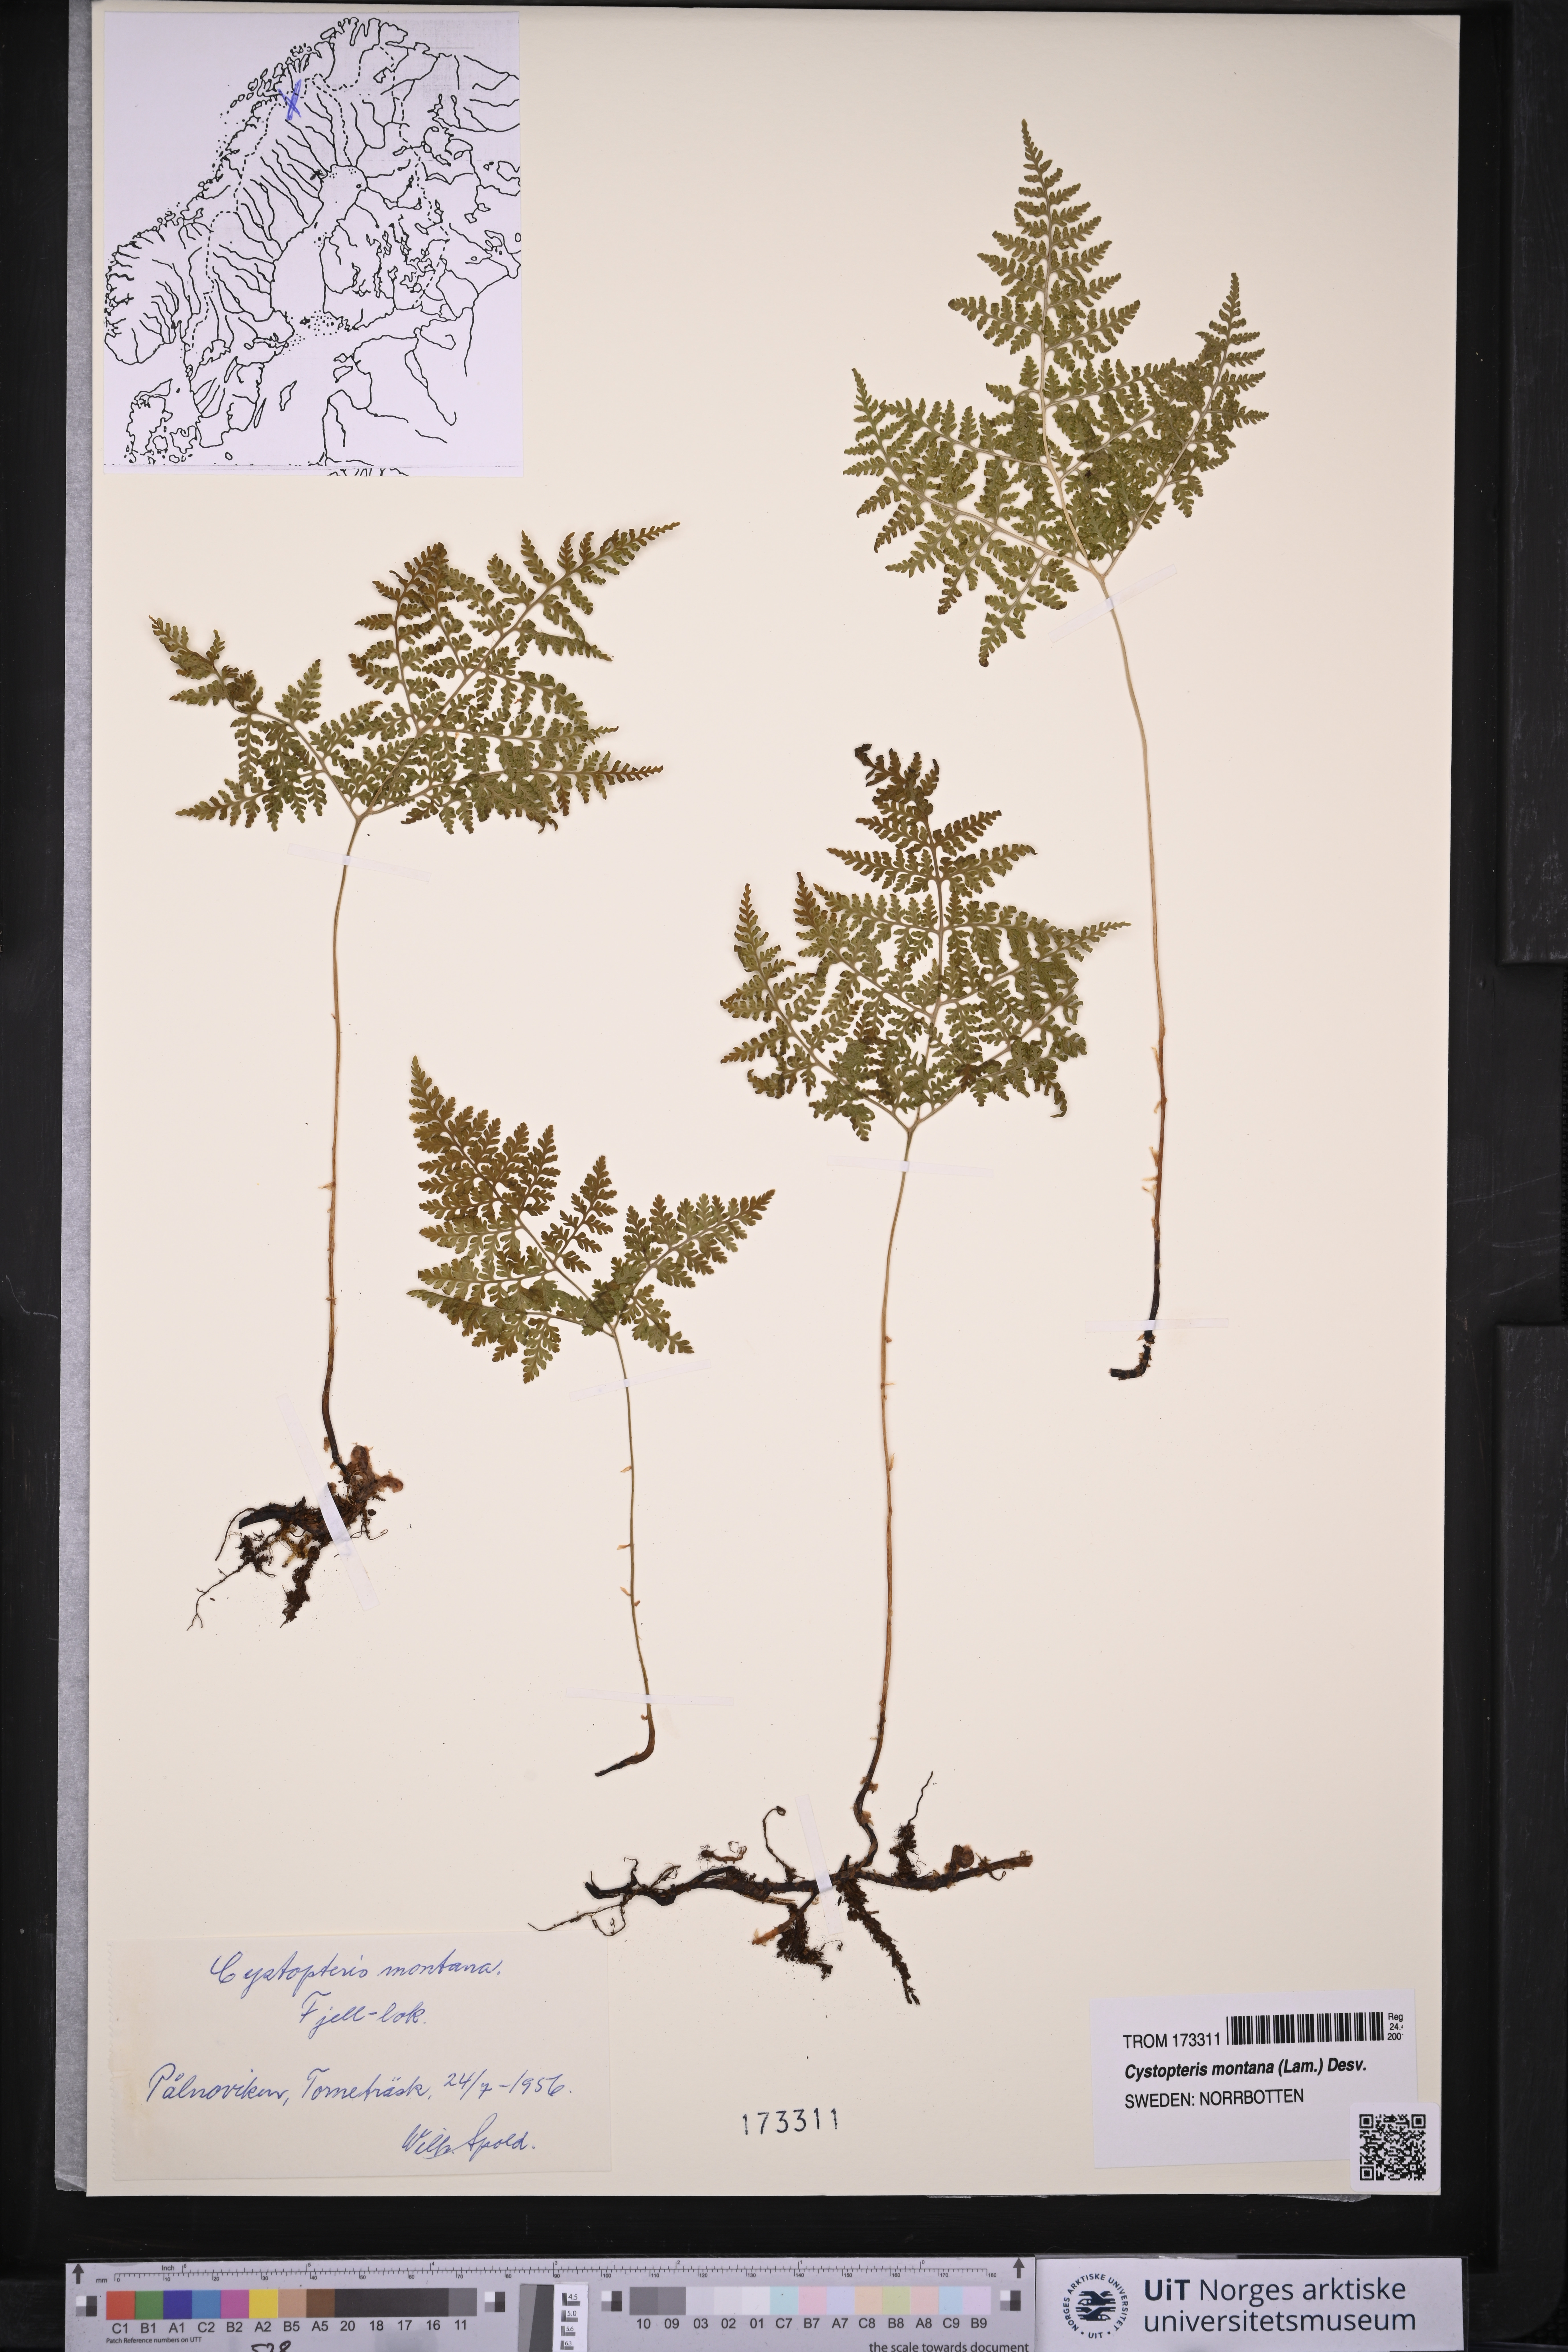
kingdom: Plantae
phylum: Tracheophyta
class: Polypodiopsida
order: Polypodiales
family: Cystopteridaceae
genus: Cystopteris
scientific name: Cystopteris montana
